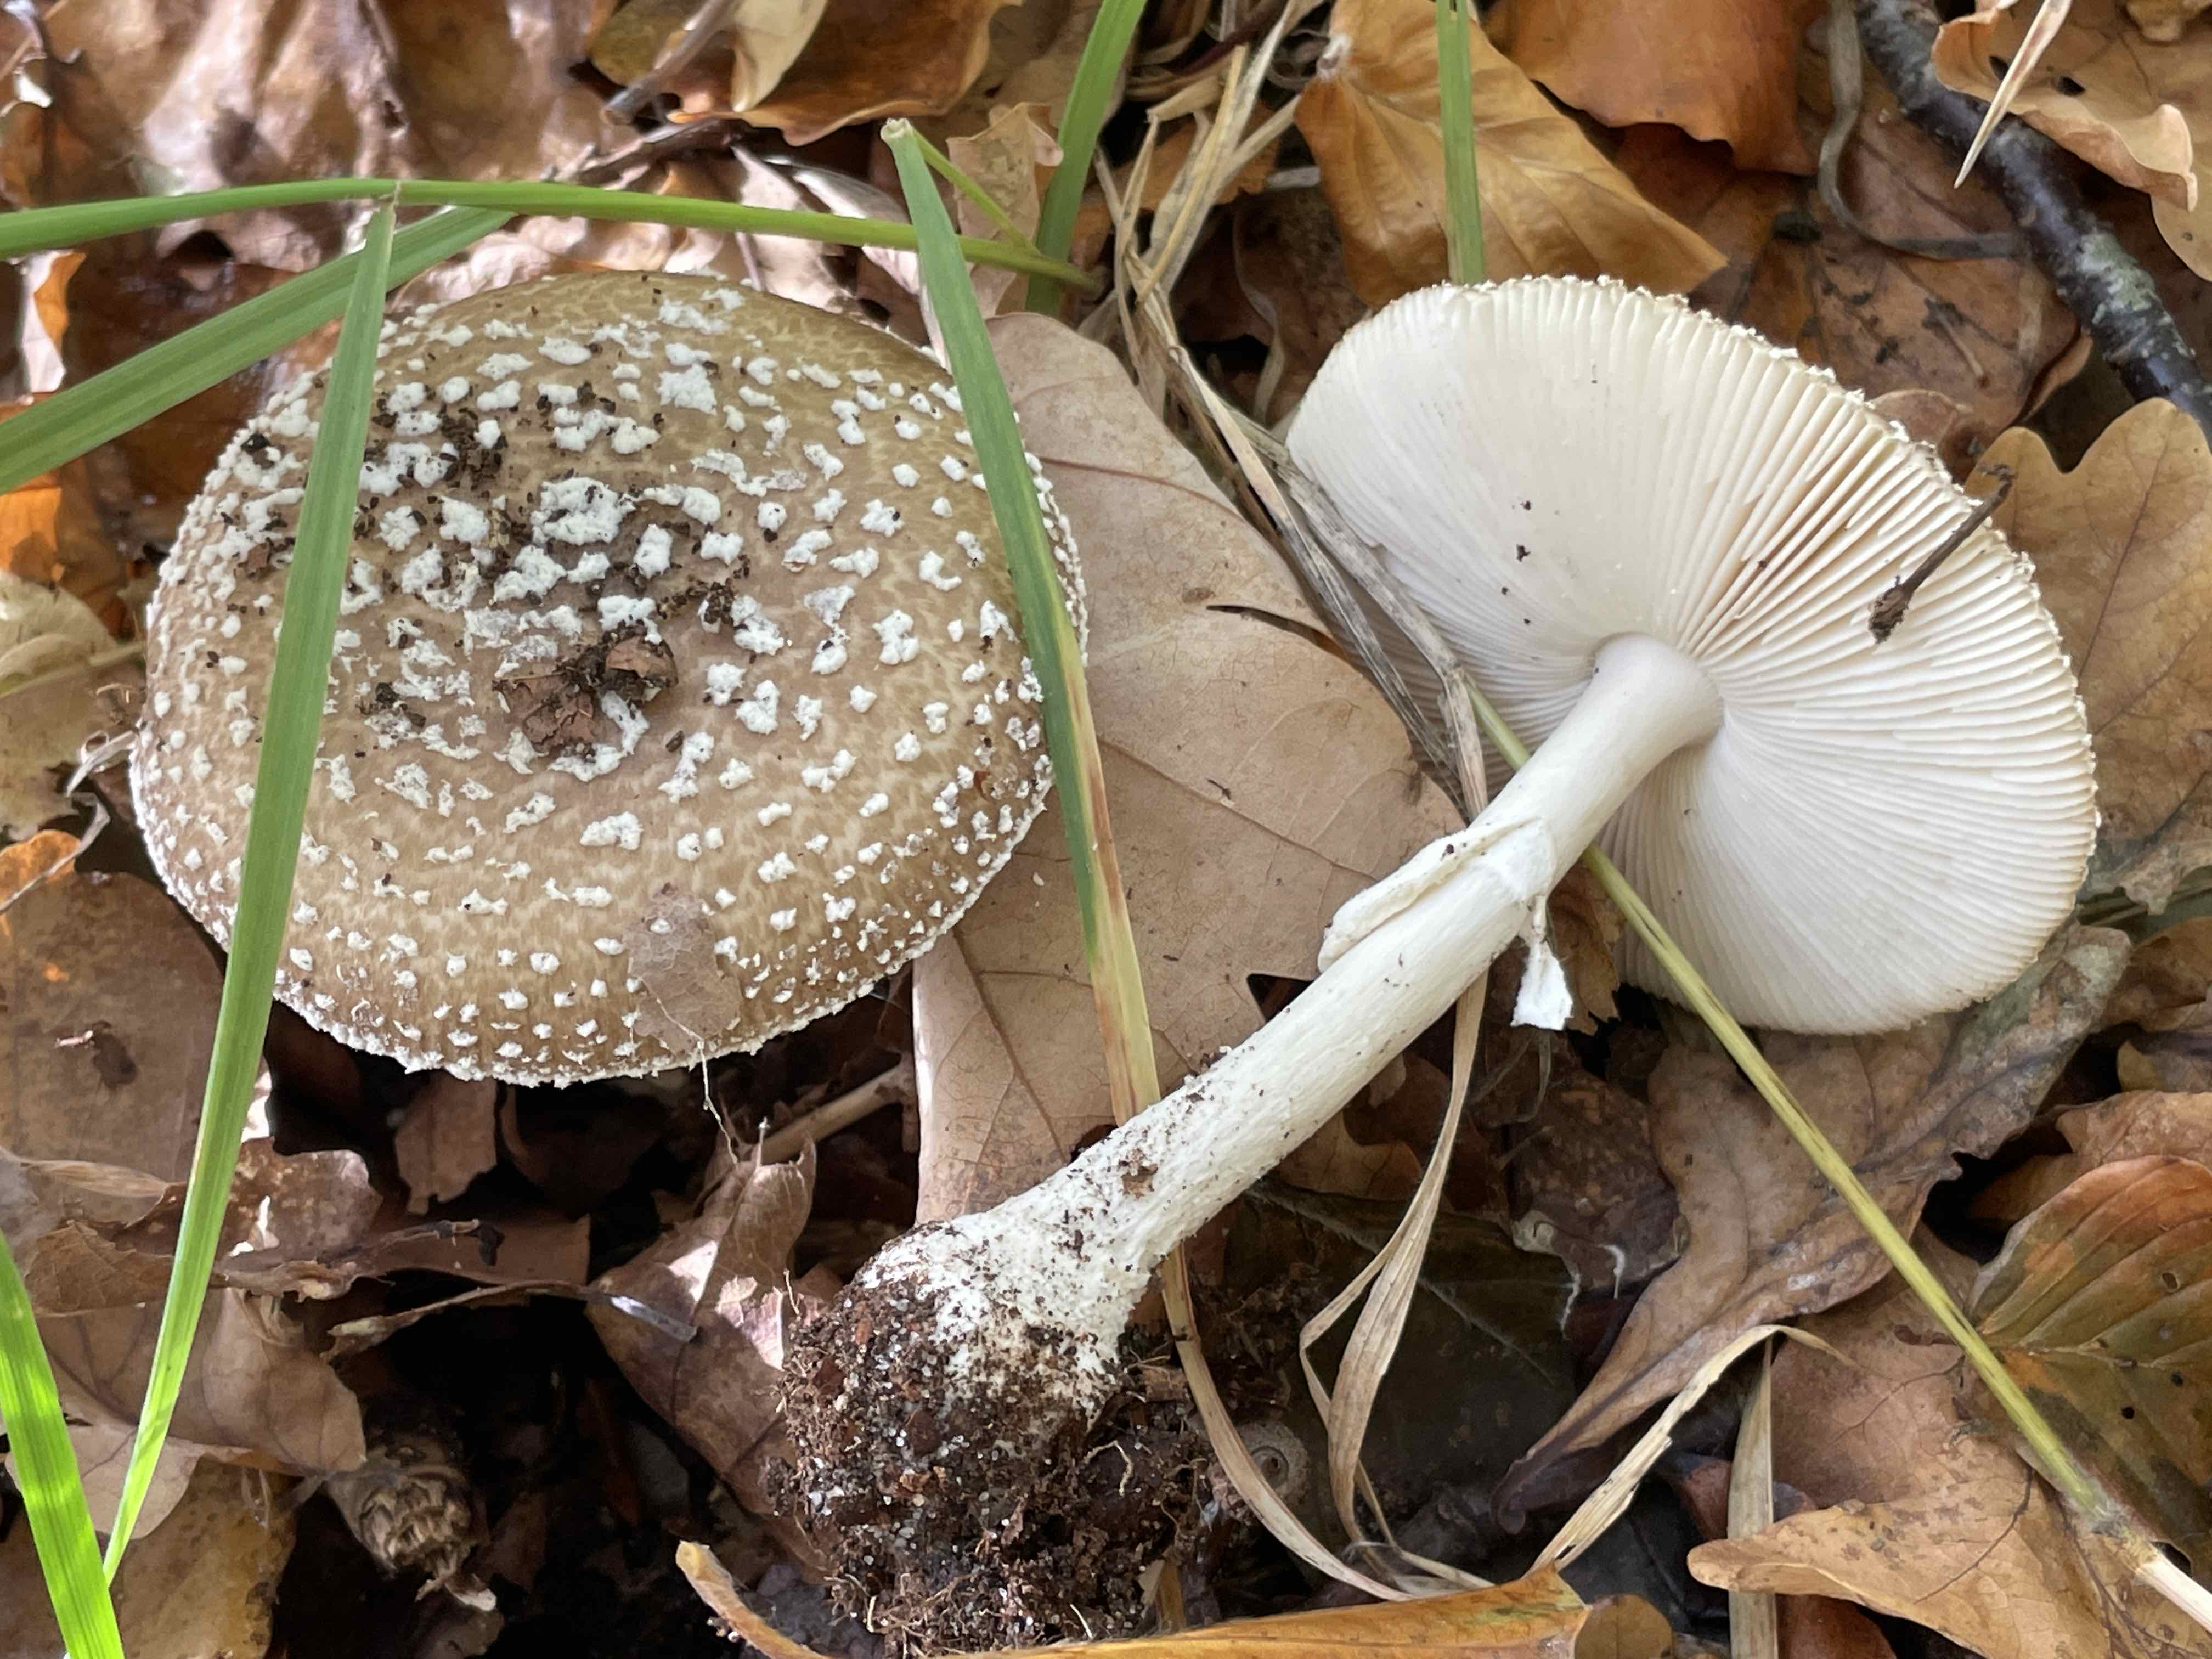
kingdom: Fungi
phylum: Basidiomycota
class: Agaricomycetes
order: Agaricales
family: Amanitaceae
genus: Amanita
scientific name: Amanita pantherina
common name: panter-fluesvamp
